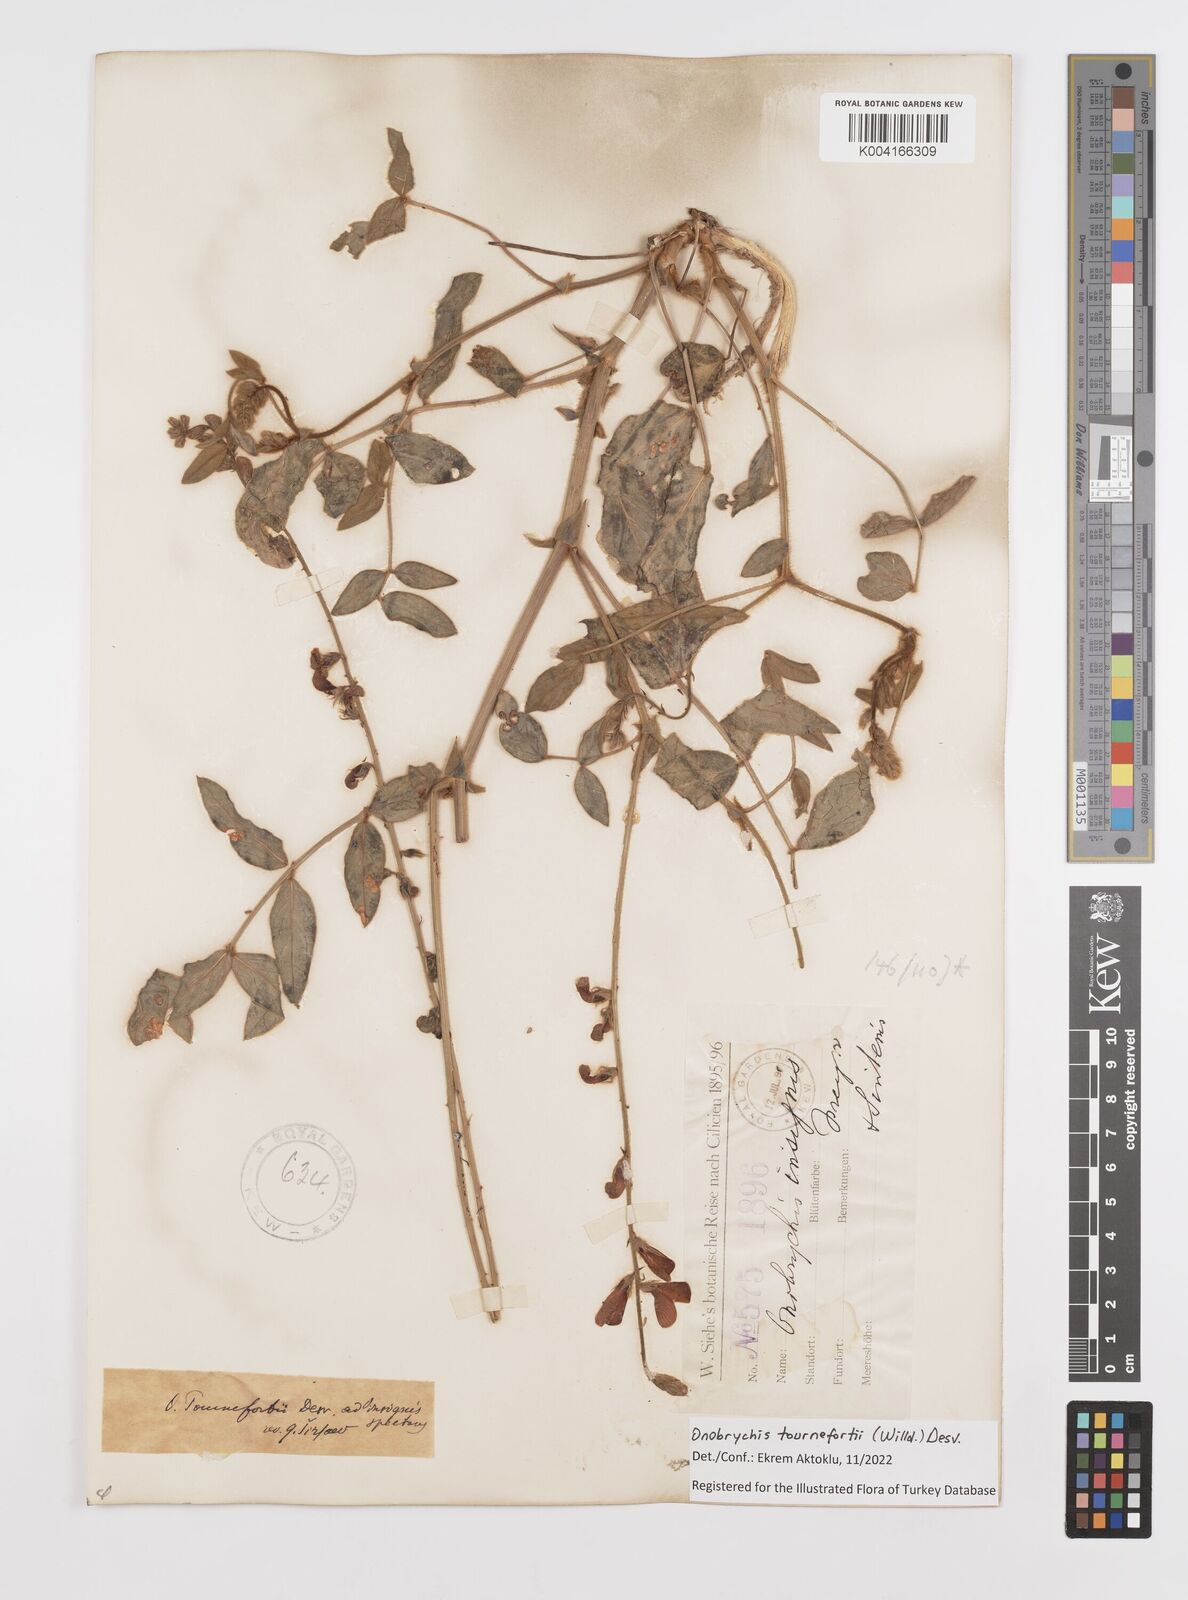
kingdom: Plantae
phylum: Tracheophyta
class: Magnoliopsida
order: Fabales
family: Fabaceae
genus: Onobrychis
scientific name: Onobrychis tournefortii
